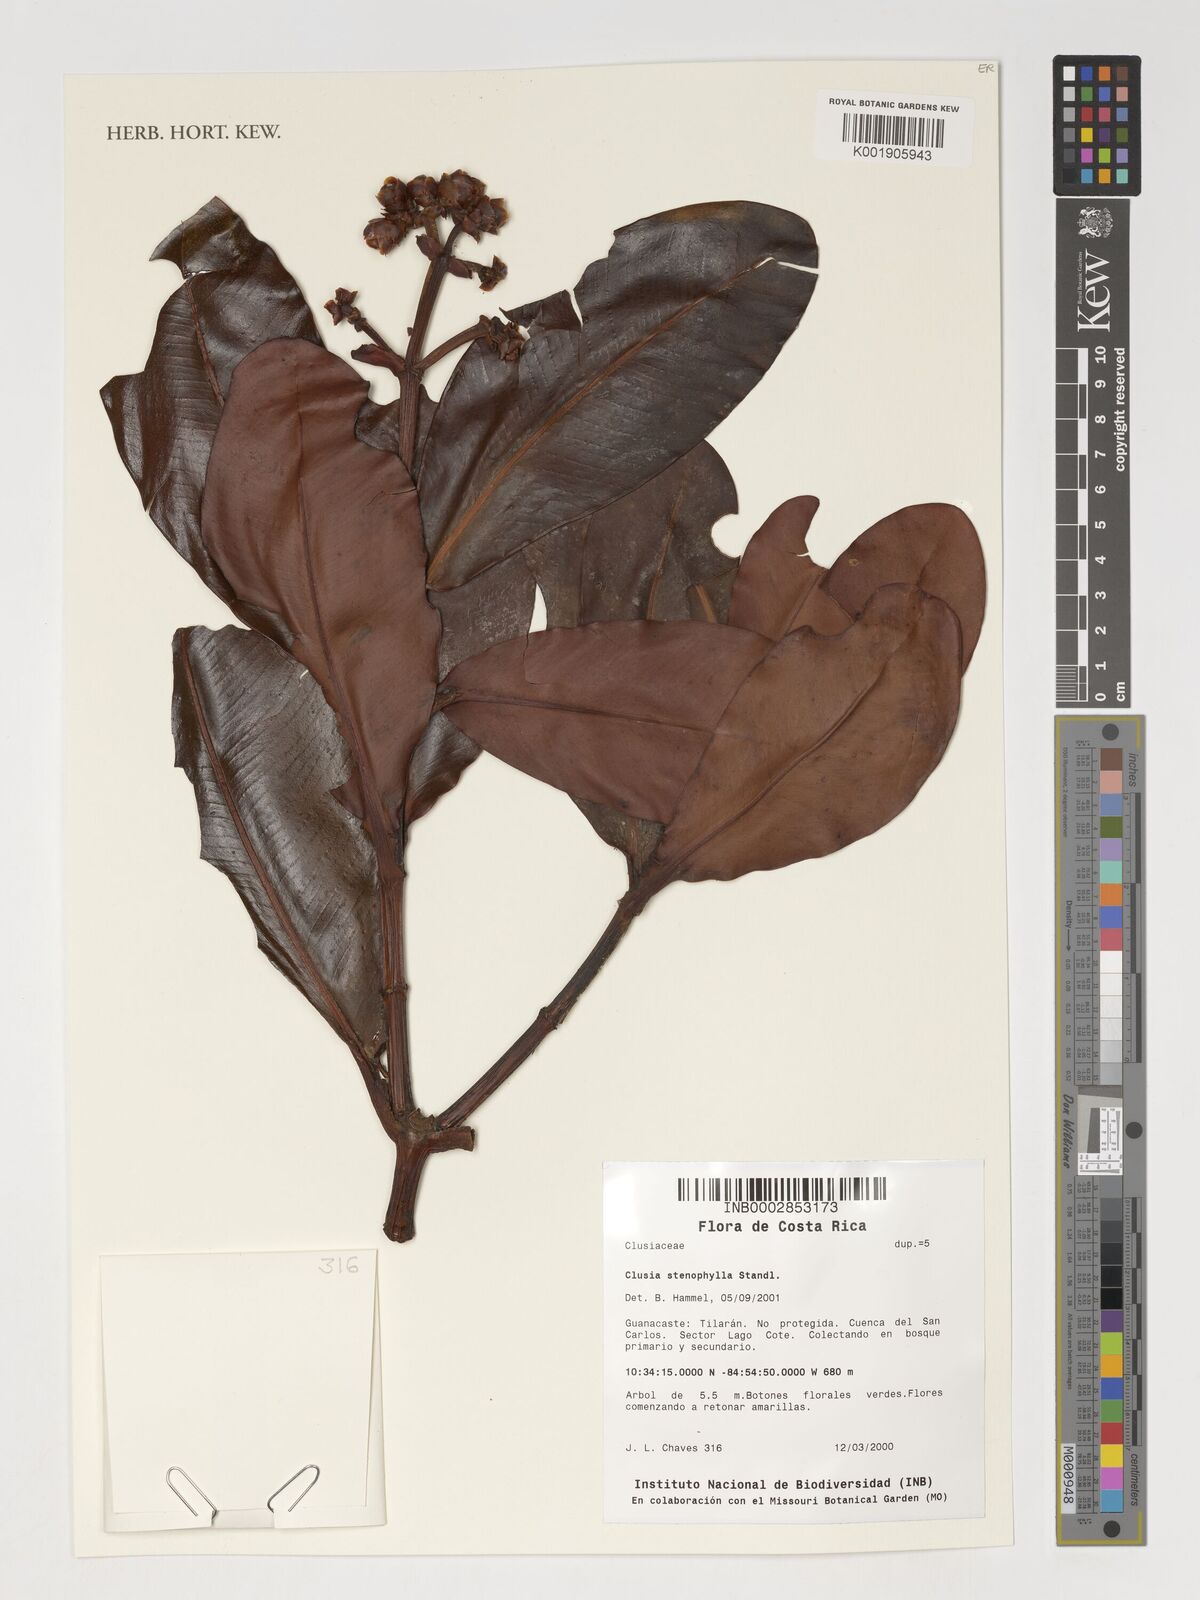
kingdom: Plantae
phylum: Tracheophyta
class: Magnoliopsida
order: Malpighiales
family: Clusiaceae
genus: Clusia
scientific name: Clusia stenophylla
